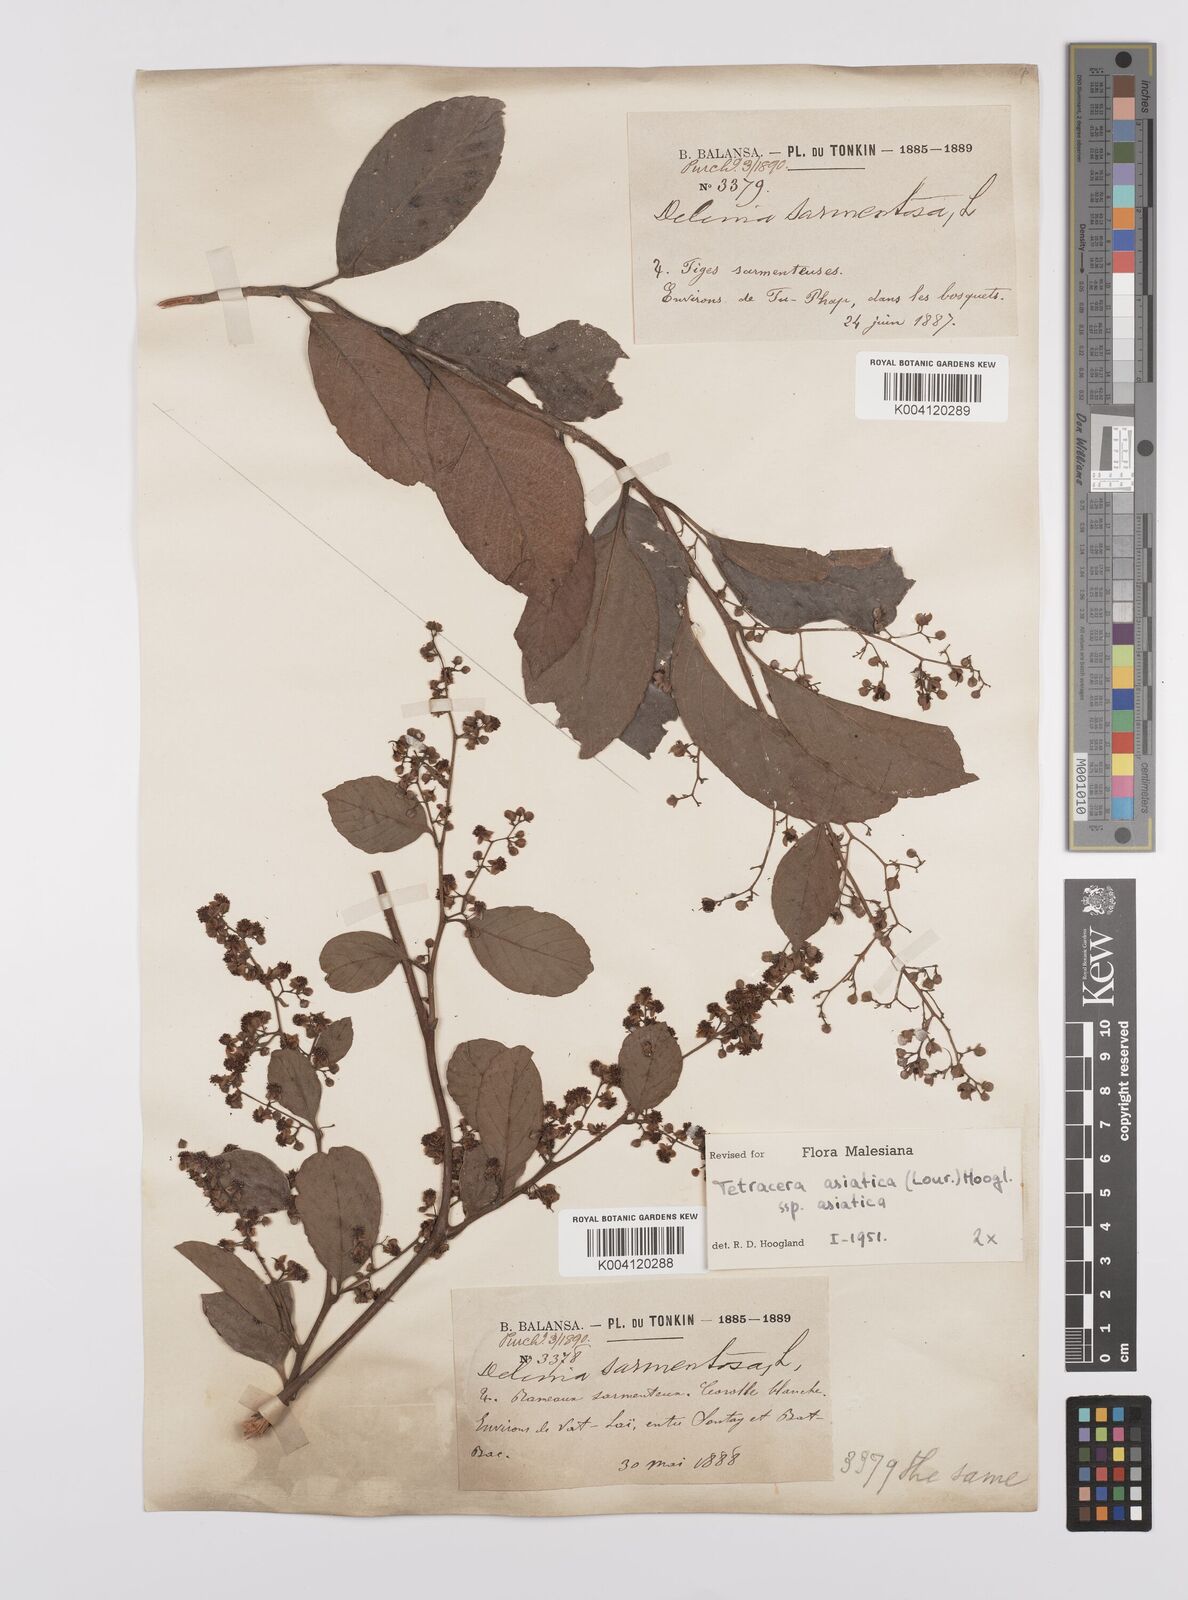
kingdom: Plantae
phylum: Tracheophyta
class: Magnoliopsida
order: Dilleniales
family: Dilleniaceae
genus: Tetracera
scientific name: Tetracera sarmentosa
